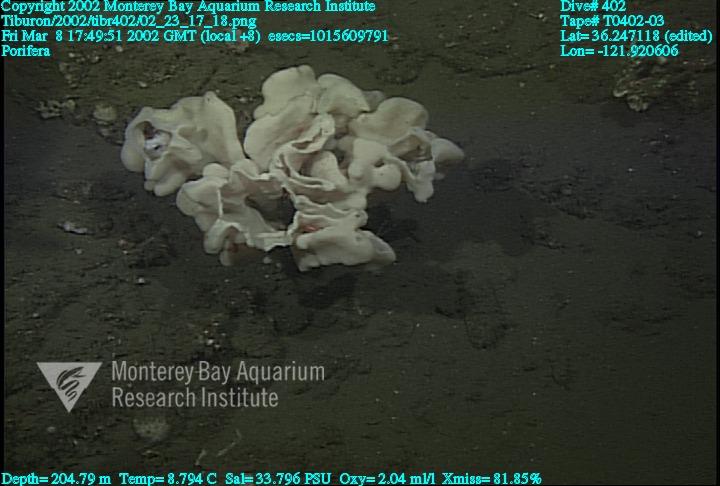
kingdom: Animalia
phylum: Porifera
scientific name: Porifera
